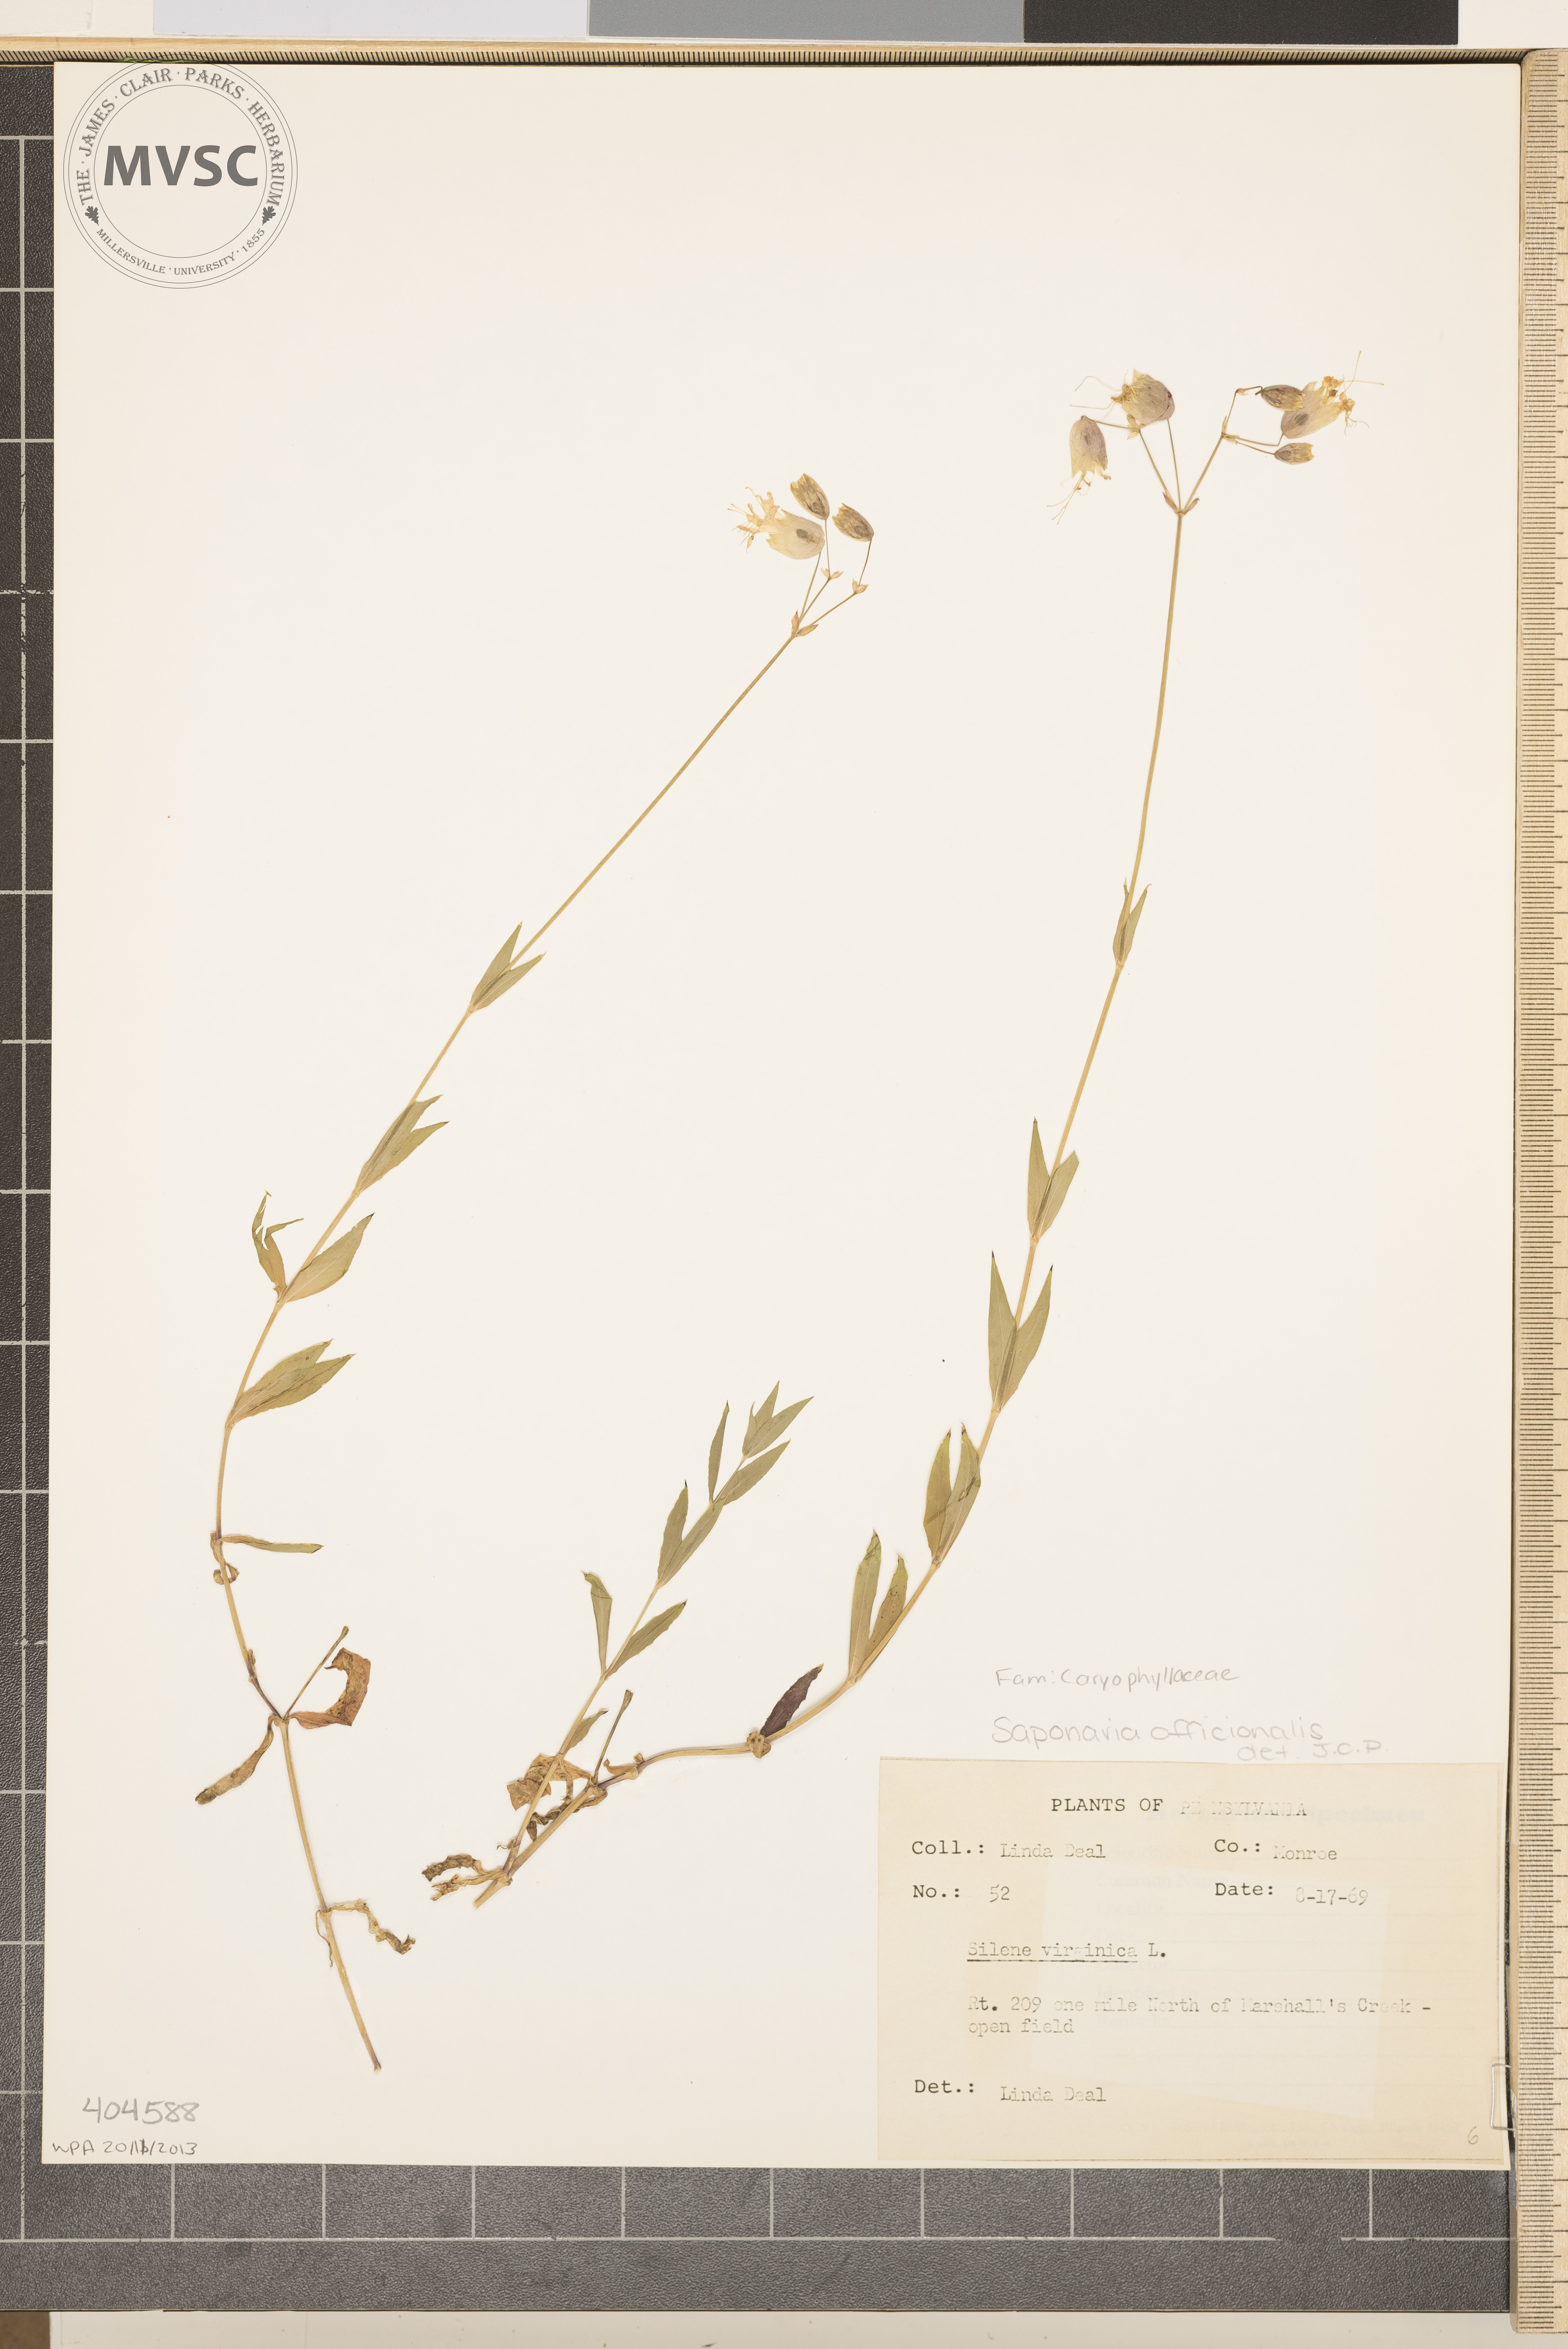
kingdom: Plantae
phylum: Tracheophyta
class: Magnoliopsida
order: Caryophyllales
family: Caryophyllaceae
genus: Saponaria
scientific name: Saponaria officinalis
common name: Soapwort
